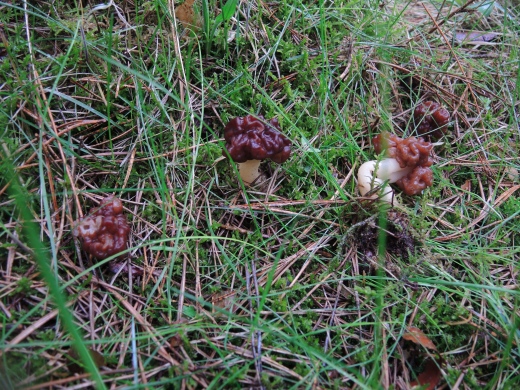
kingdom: Fungi
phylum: Ascomycota
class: Pezizomycetes
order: Pezizales
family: Discinaceae
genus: Gyromitra
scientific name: Gyromitra esculenta
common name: ægte stenmorkel
